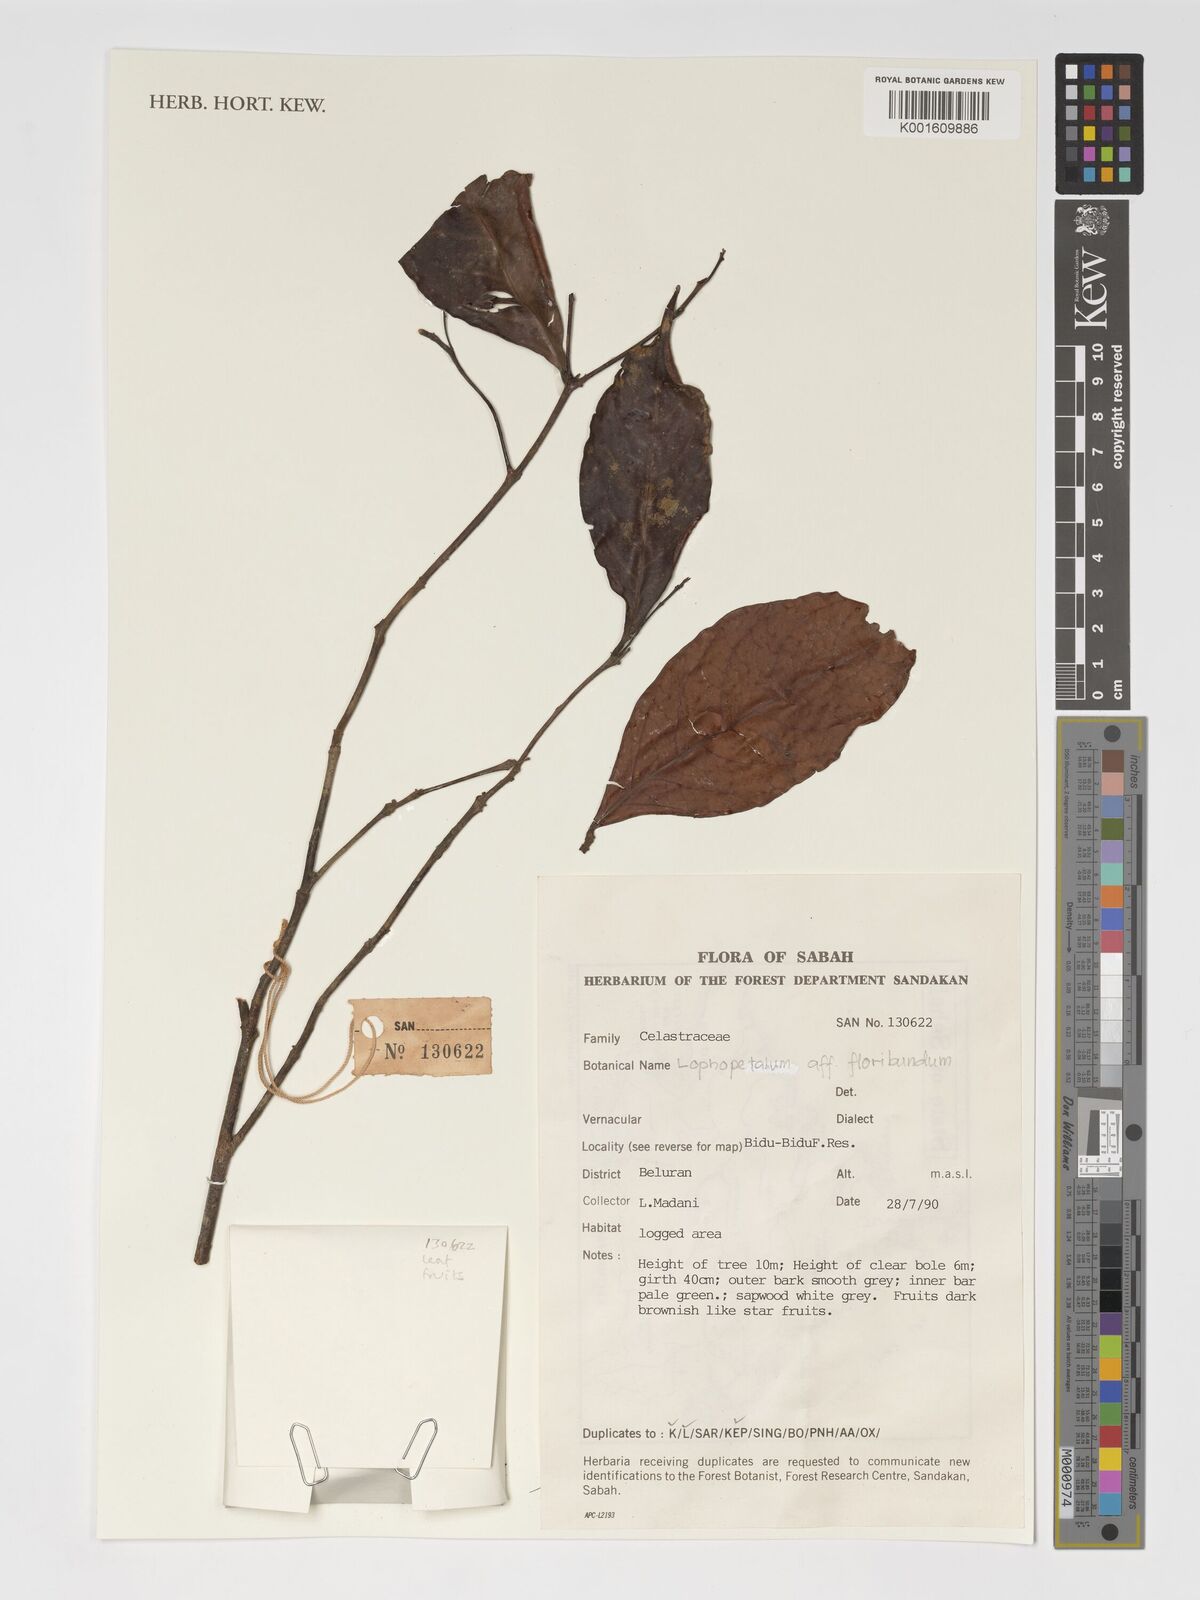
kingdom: Plantae
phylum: Tracheophyta
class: Magnoliopsida
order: Celastrales
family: Celastraceae
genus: Lophopetalum
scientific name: Lophopetalum floribundum
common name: Perupok
